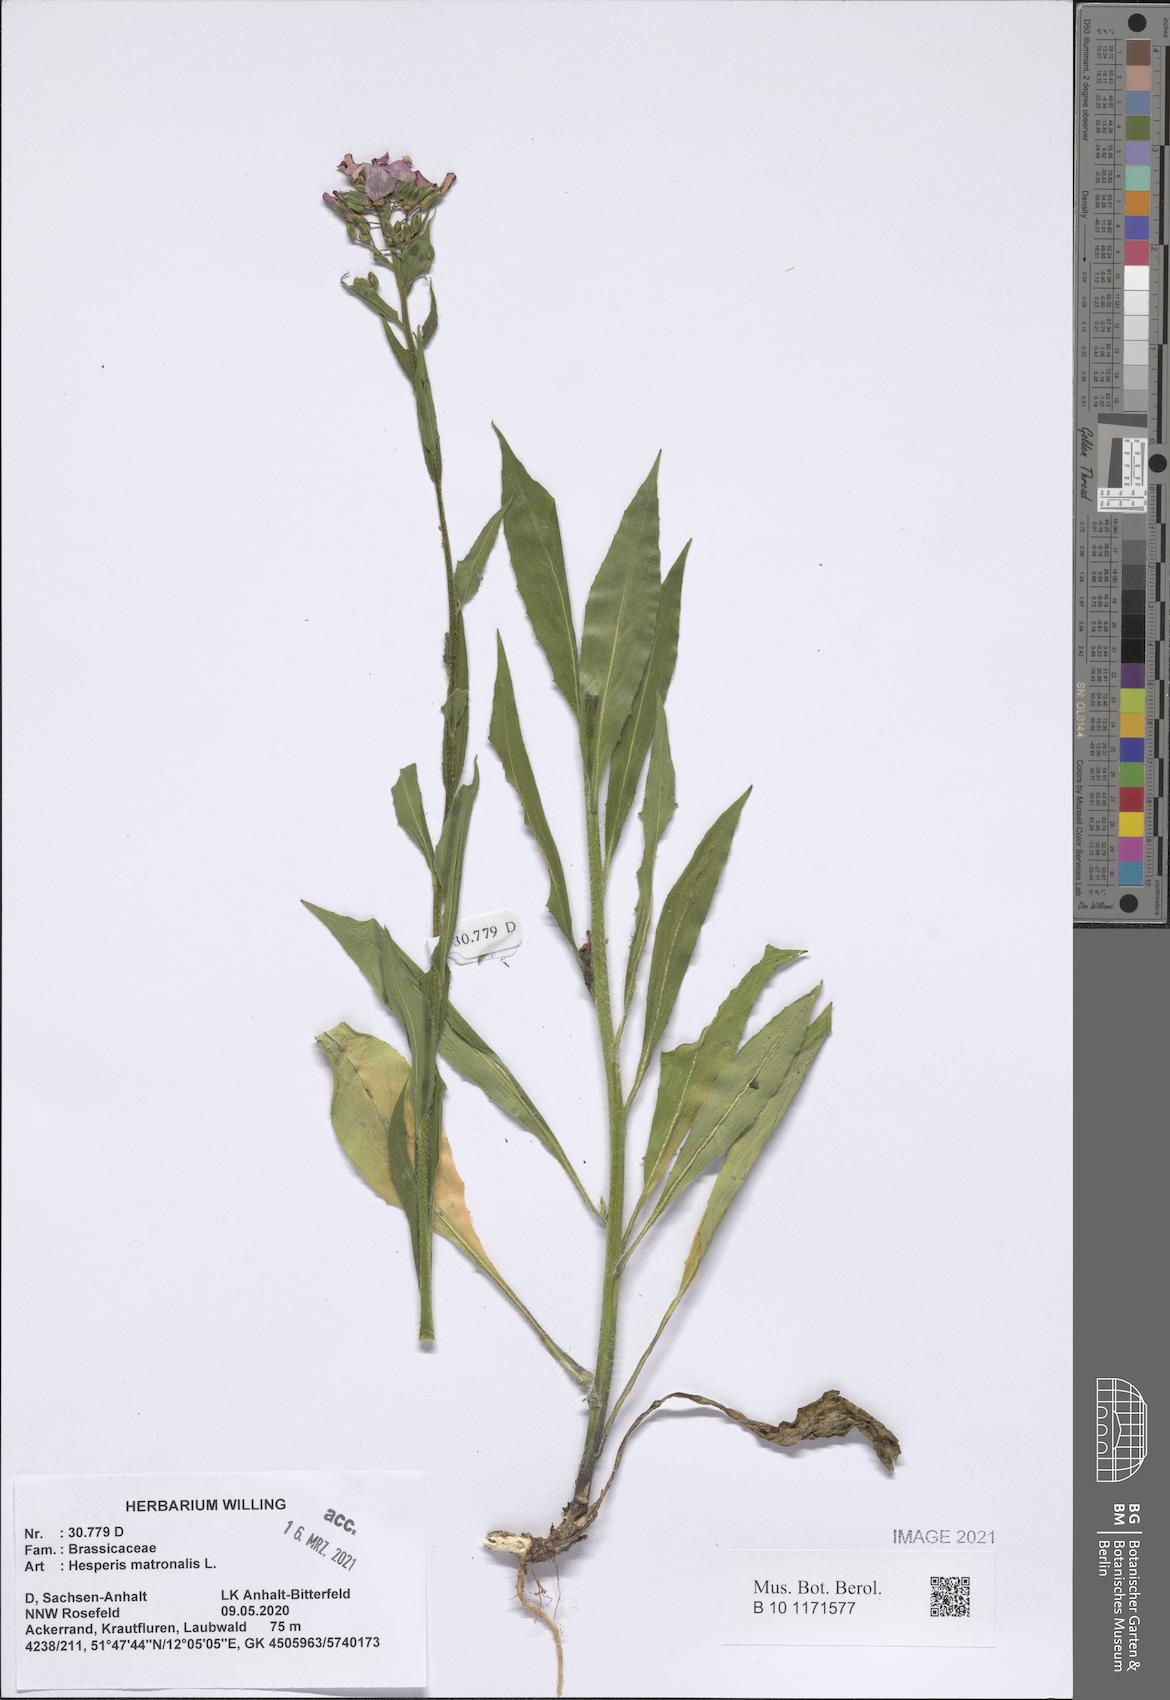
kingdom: Plantae
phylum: Tracheophyta
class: Magnoliopsida
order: Brassicales
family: Brassicaceae
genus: Hesperis
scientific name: Hesperis matronalis
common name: Dame's-violet
